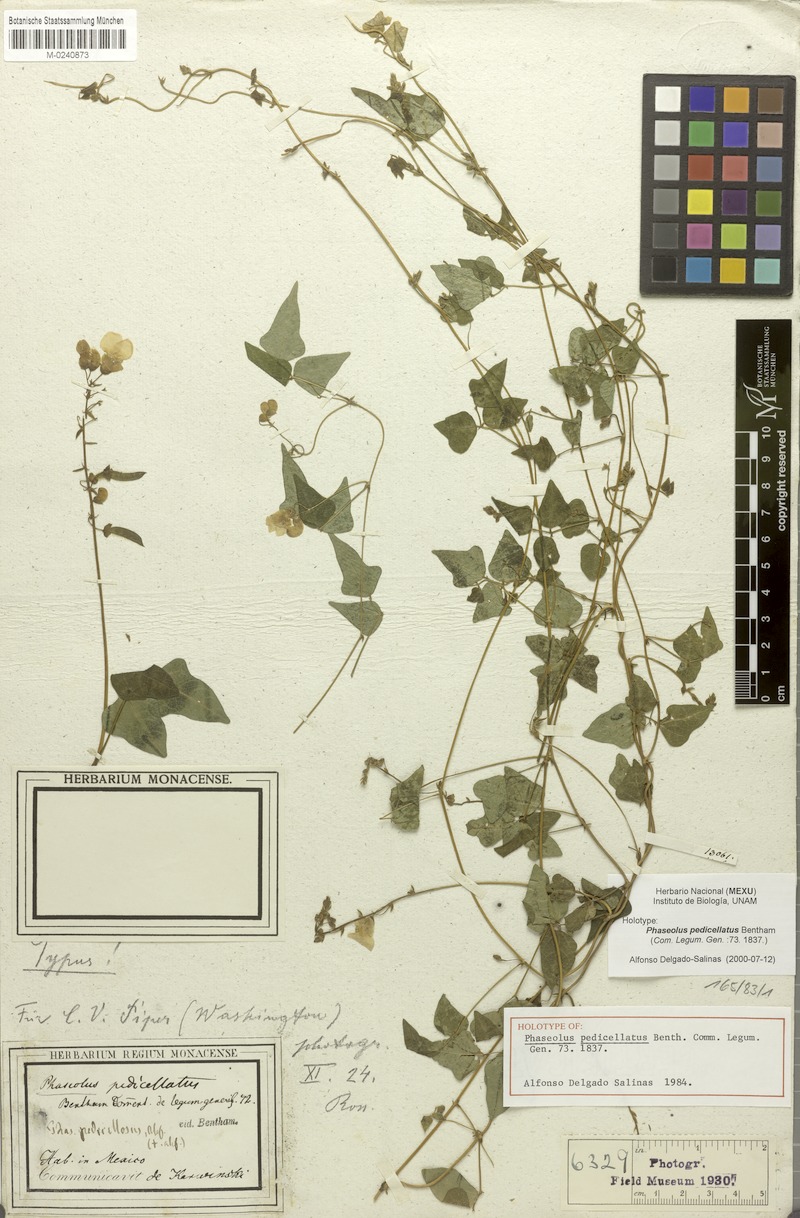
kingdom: Plantae
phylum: Tracheophyta
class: Magnoliopsida
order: Fabales
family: Fabaceae
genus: Phaseolus
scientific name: Phaseolus pedicellatus
